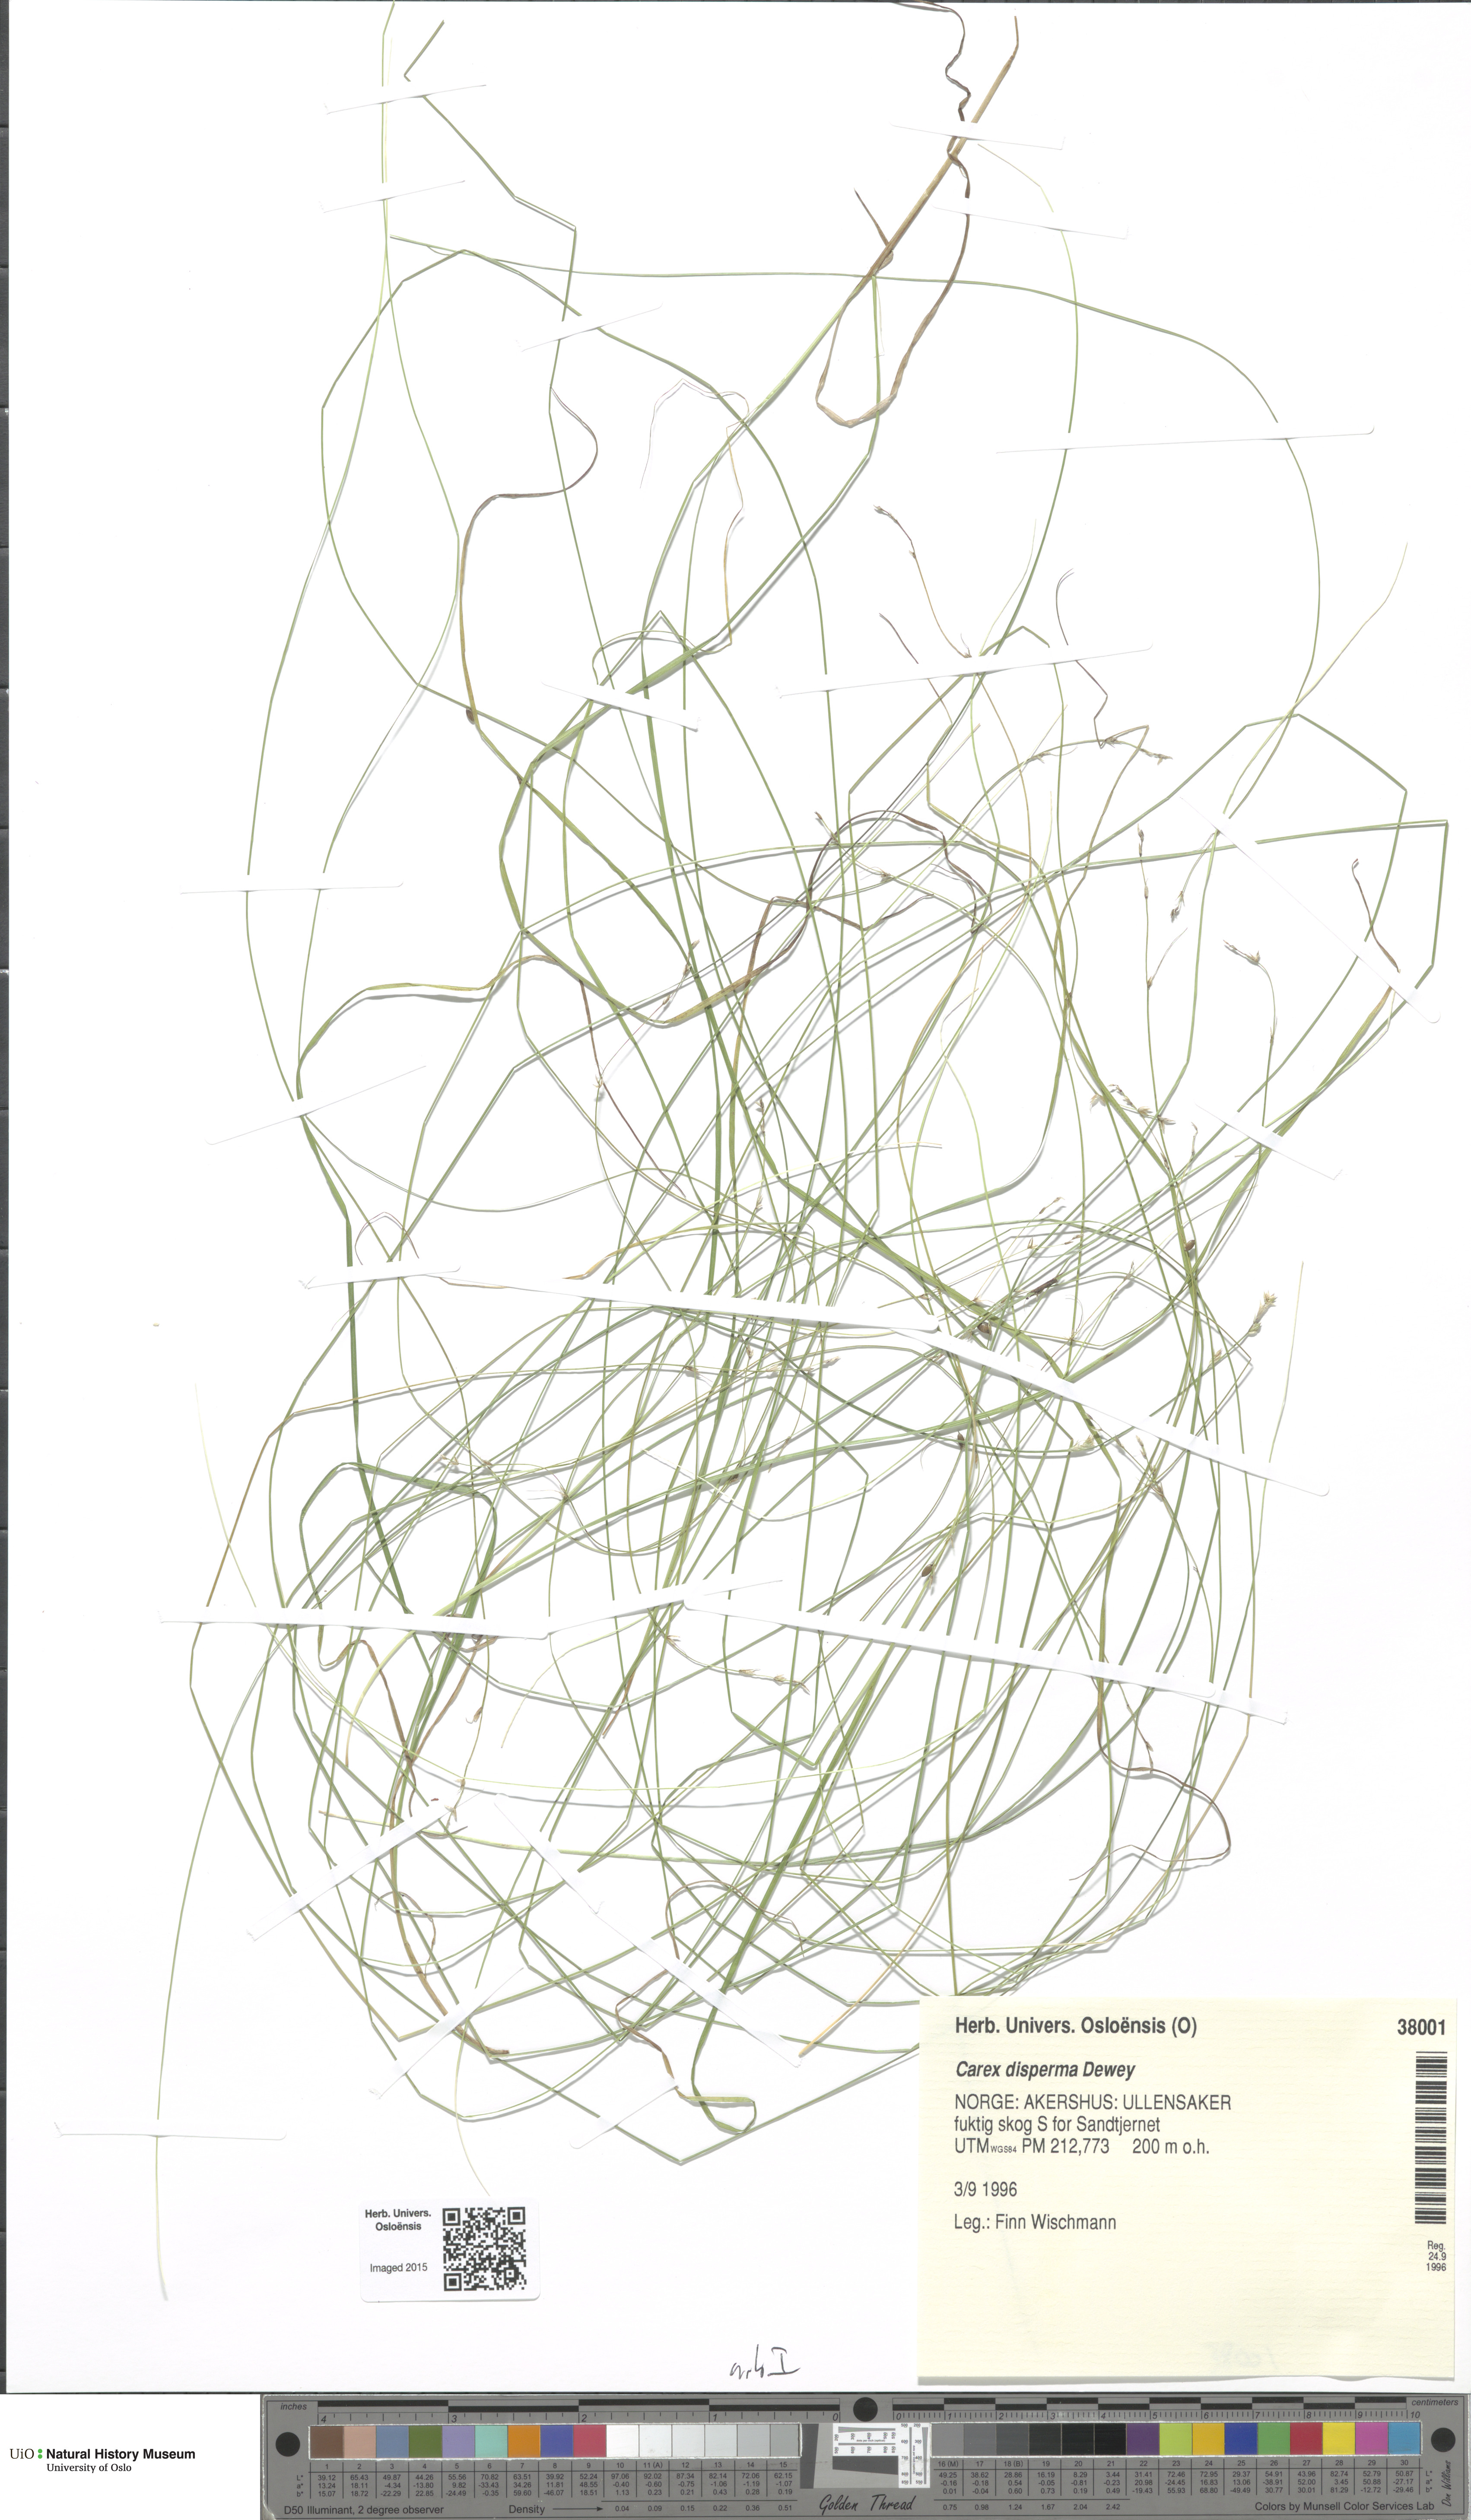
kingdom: Plantae
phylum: Tracheophyta
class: Liliopsida
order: Poales
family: Cyperaceae
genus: Carex
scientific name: Carex disperma
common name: Short-leaved sedge
